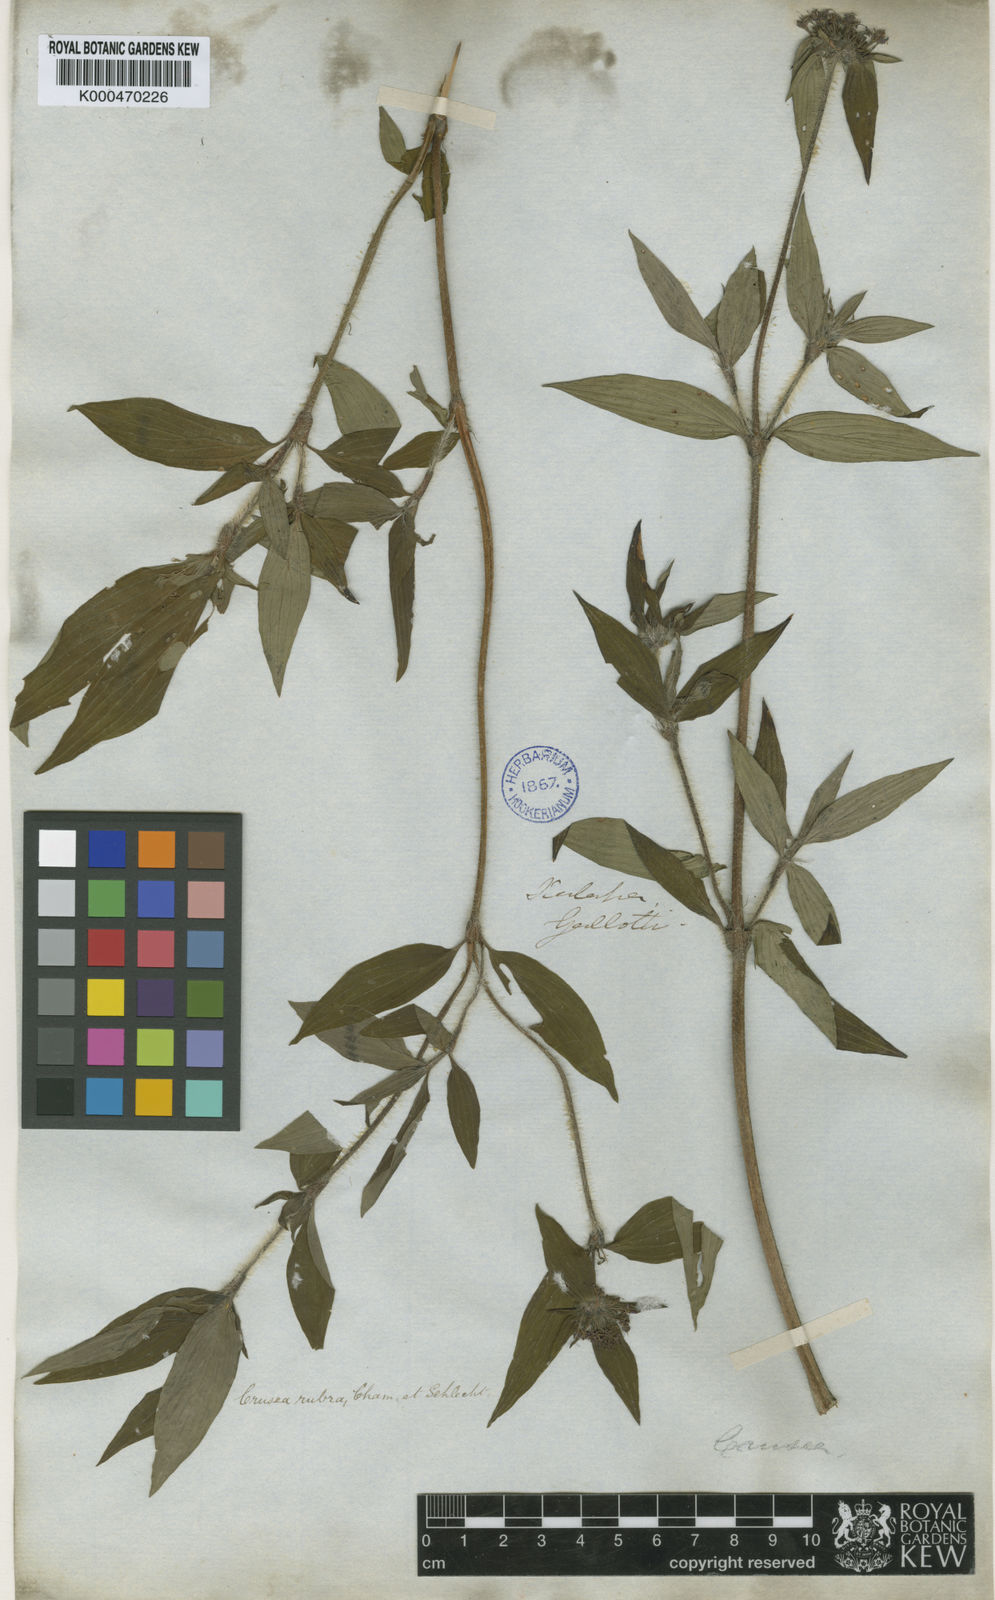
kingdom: Plantae
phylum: Tracheophyta
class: Magnoliopsida
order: Gentianales
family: Rubiaceae
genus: Crusea
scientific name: Crusea
